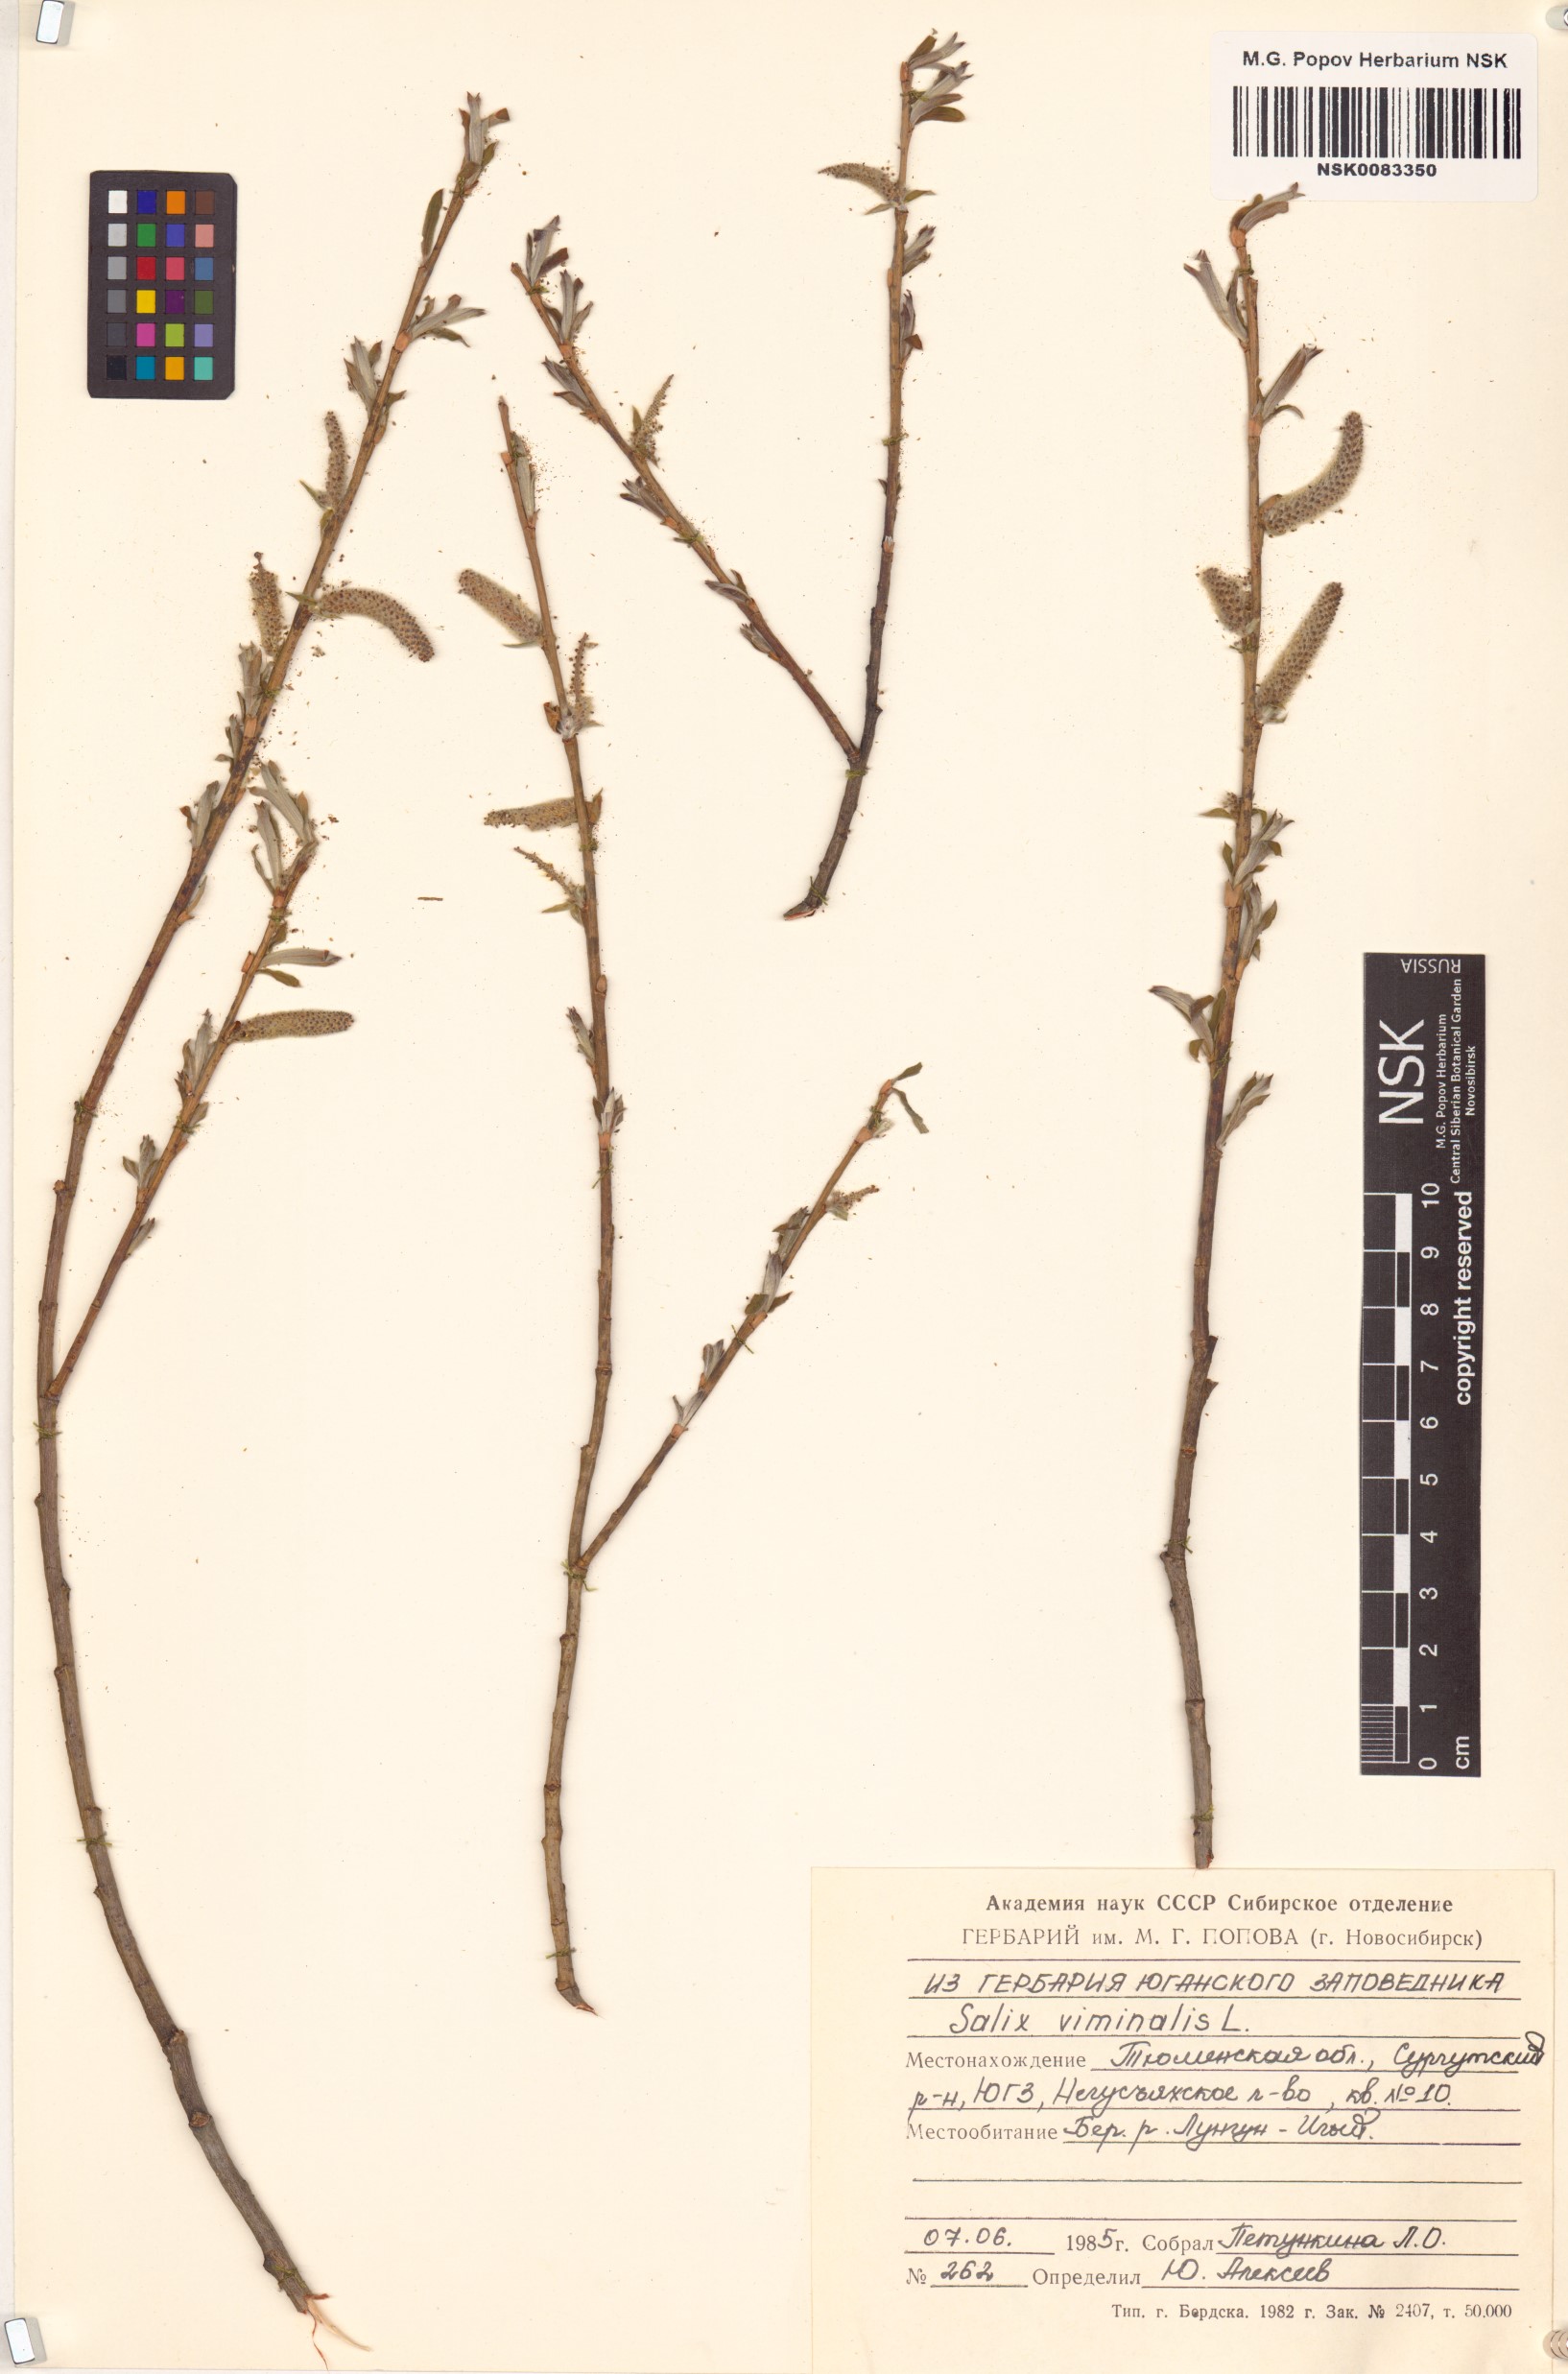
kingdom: Plantae
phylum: Tracheophyta
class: Magnoliopsida
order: Malpighiales
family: Salicaceae
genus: Salix
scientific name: Salix viminalis
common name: Osier
